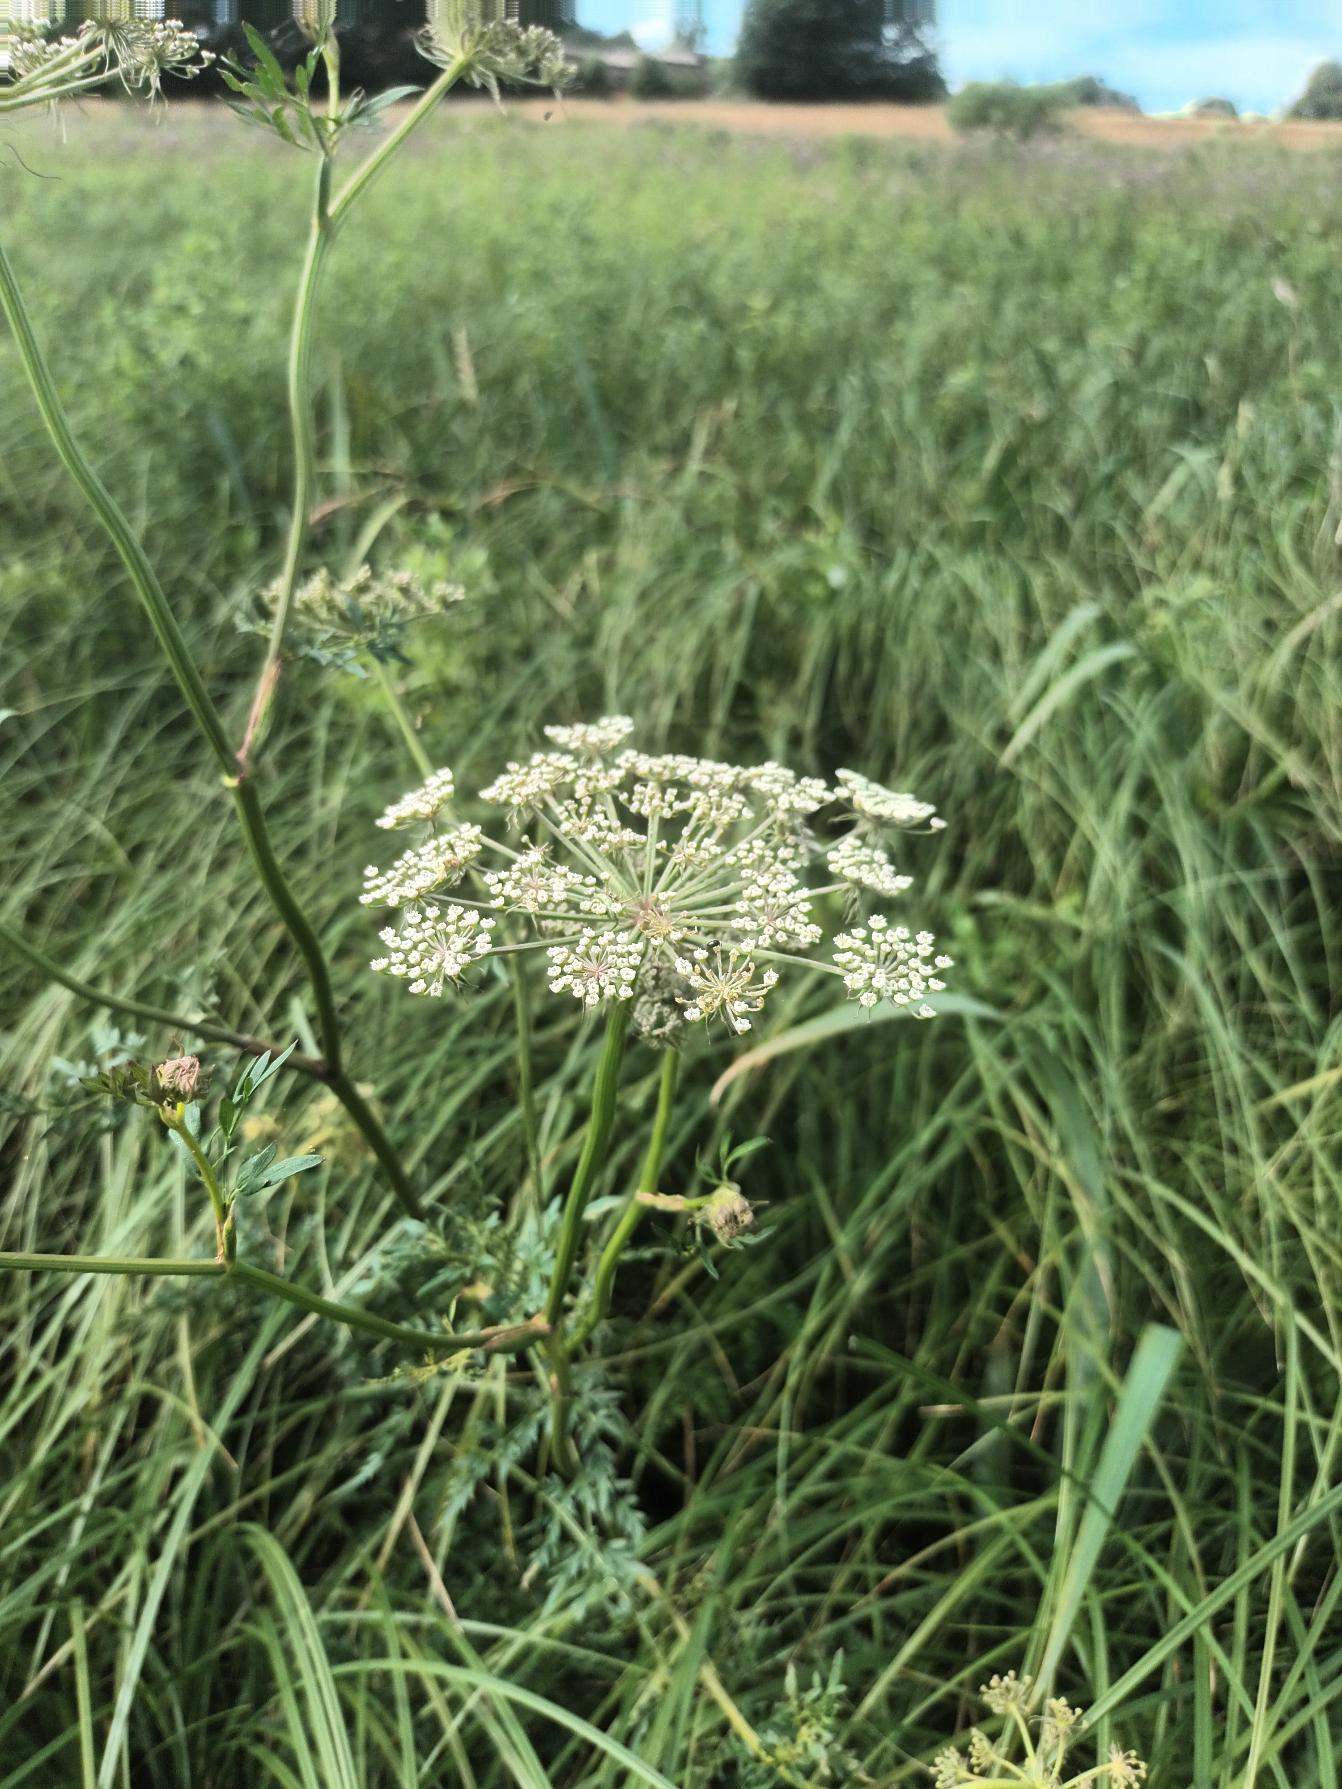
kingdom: Plantae
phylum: Tracheophyta
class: Magnoliopsida
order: Apiales
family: Apiaceae
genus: Thysselinum
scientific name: Thysselinum palustre
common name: Kær-svovlrod
